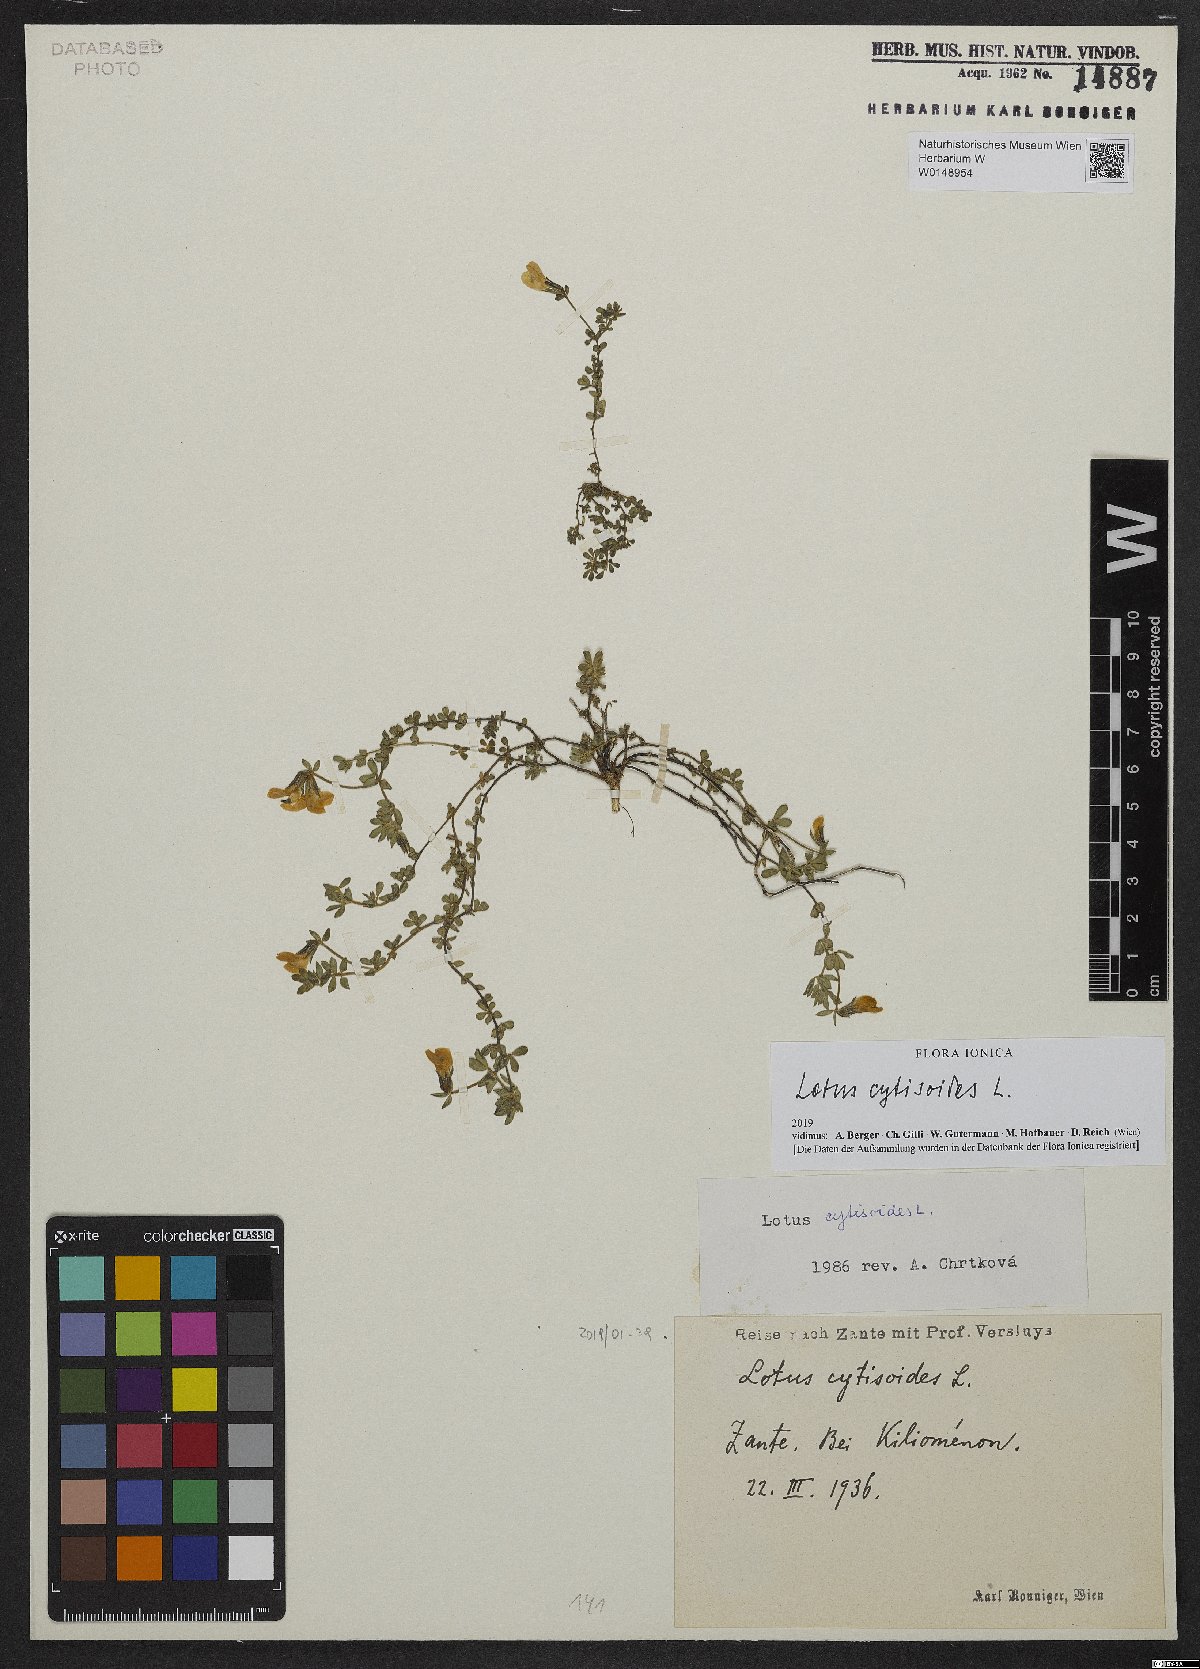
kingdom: Plantae
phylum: Tracheophyta
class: Magnoliopsida
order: Fabales
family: Fabaceae
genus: Lotus
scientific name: Lotus cytisoides
